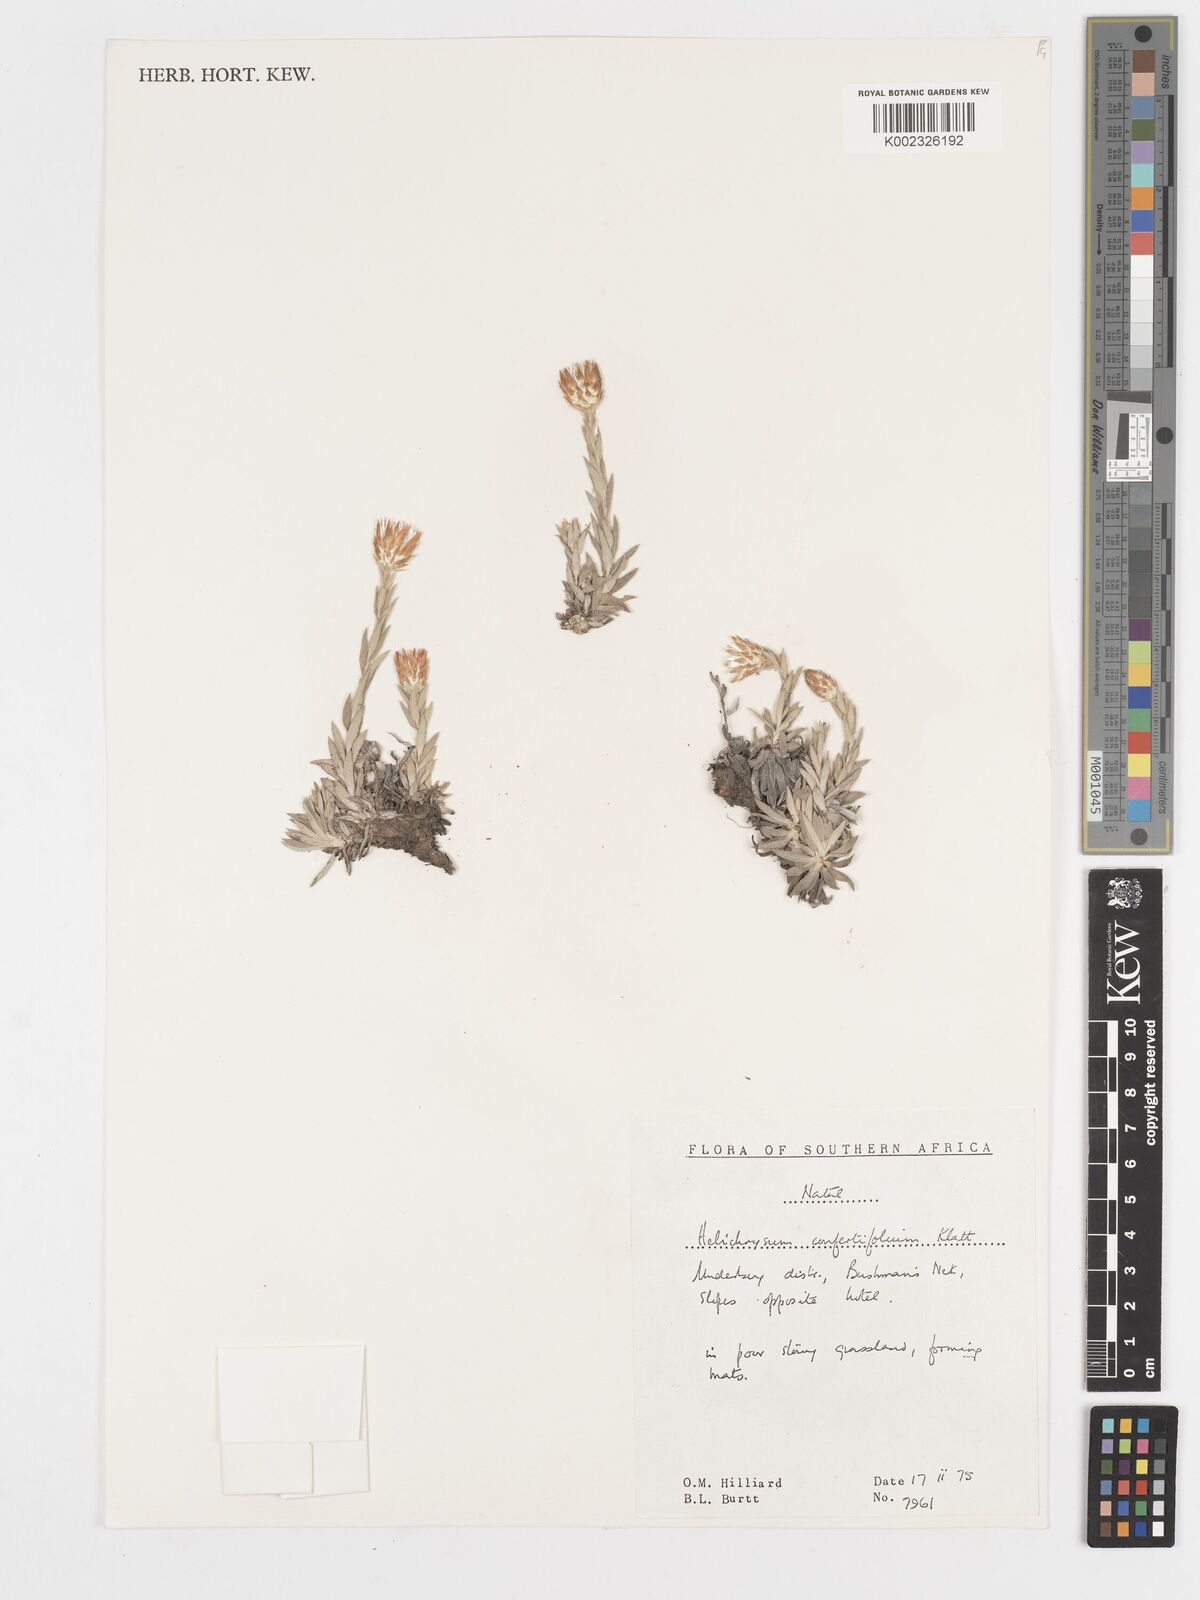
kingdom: Plantae
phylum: Tracheophyta
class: Magnoliopsida
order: Asterales
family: Asteraceae
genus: Helichrysum
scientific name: Helichrysum confertifolium
